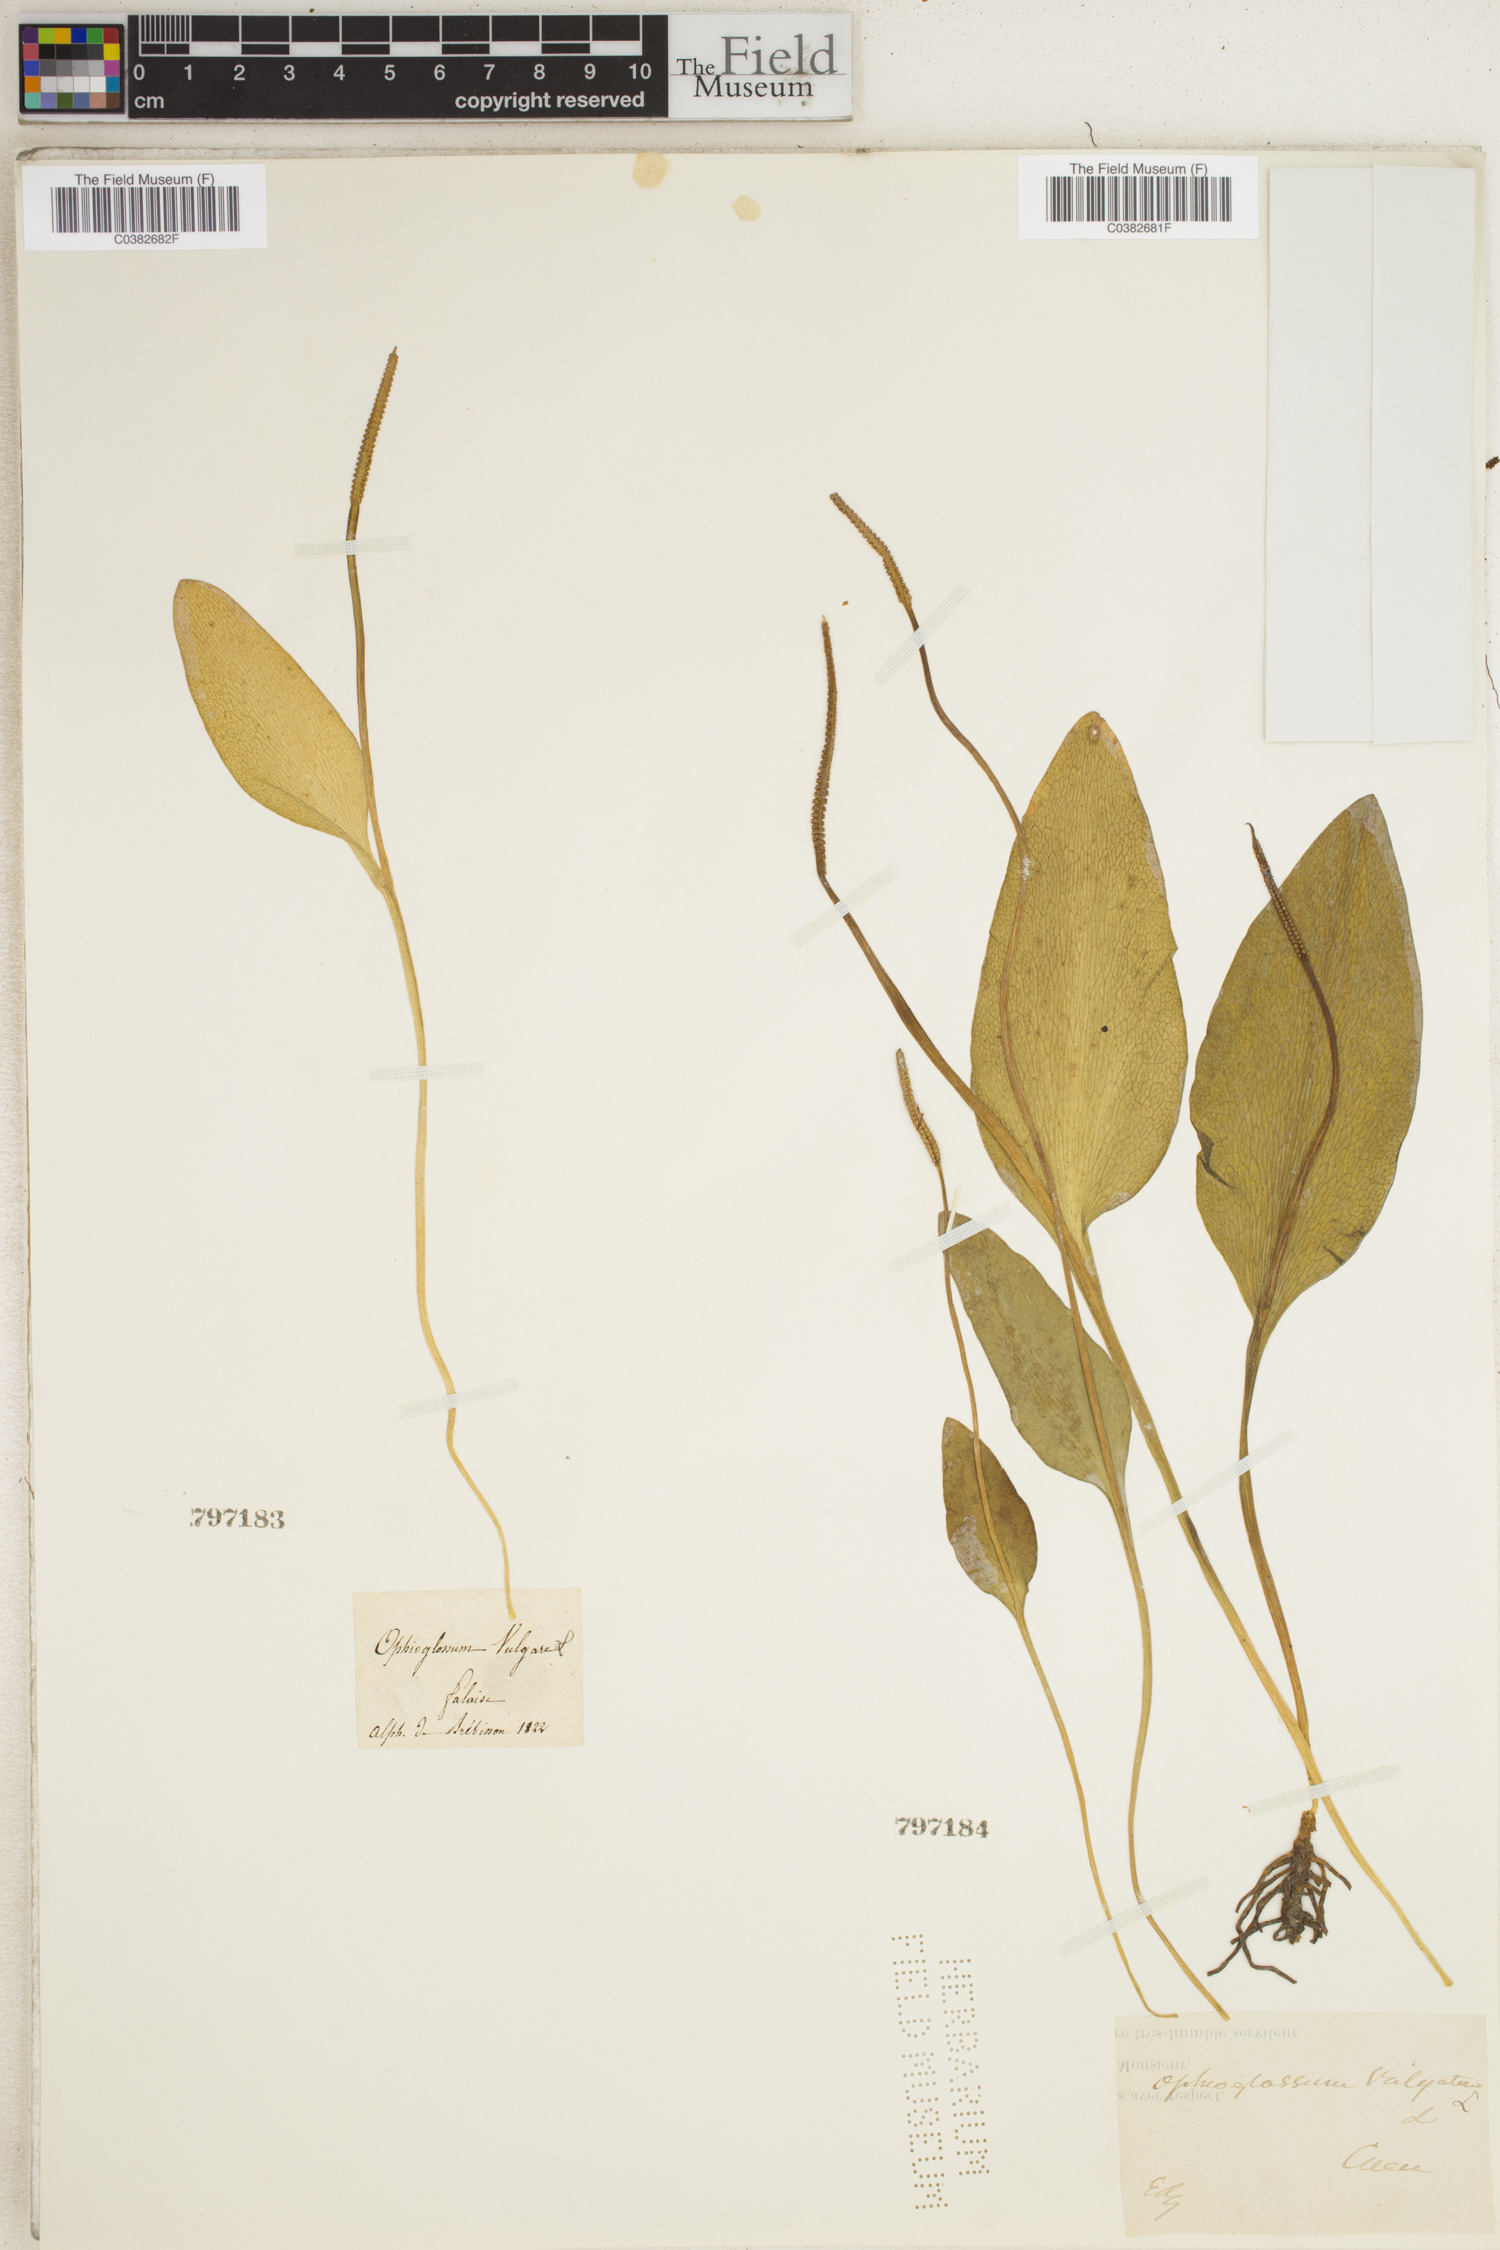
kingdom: Plantae
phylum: Tracheophyta
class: Polypodiopsida
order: Ophioglossales
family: Ophioglossaceae
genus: Ophioglossum
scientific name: Ophioglossum vulgatum
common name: Adder's-tongue
